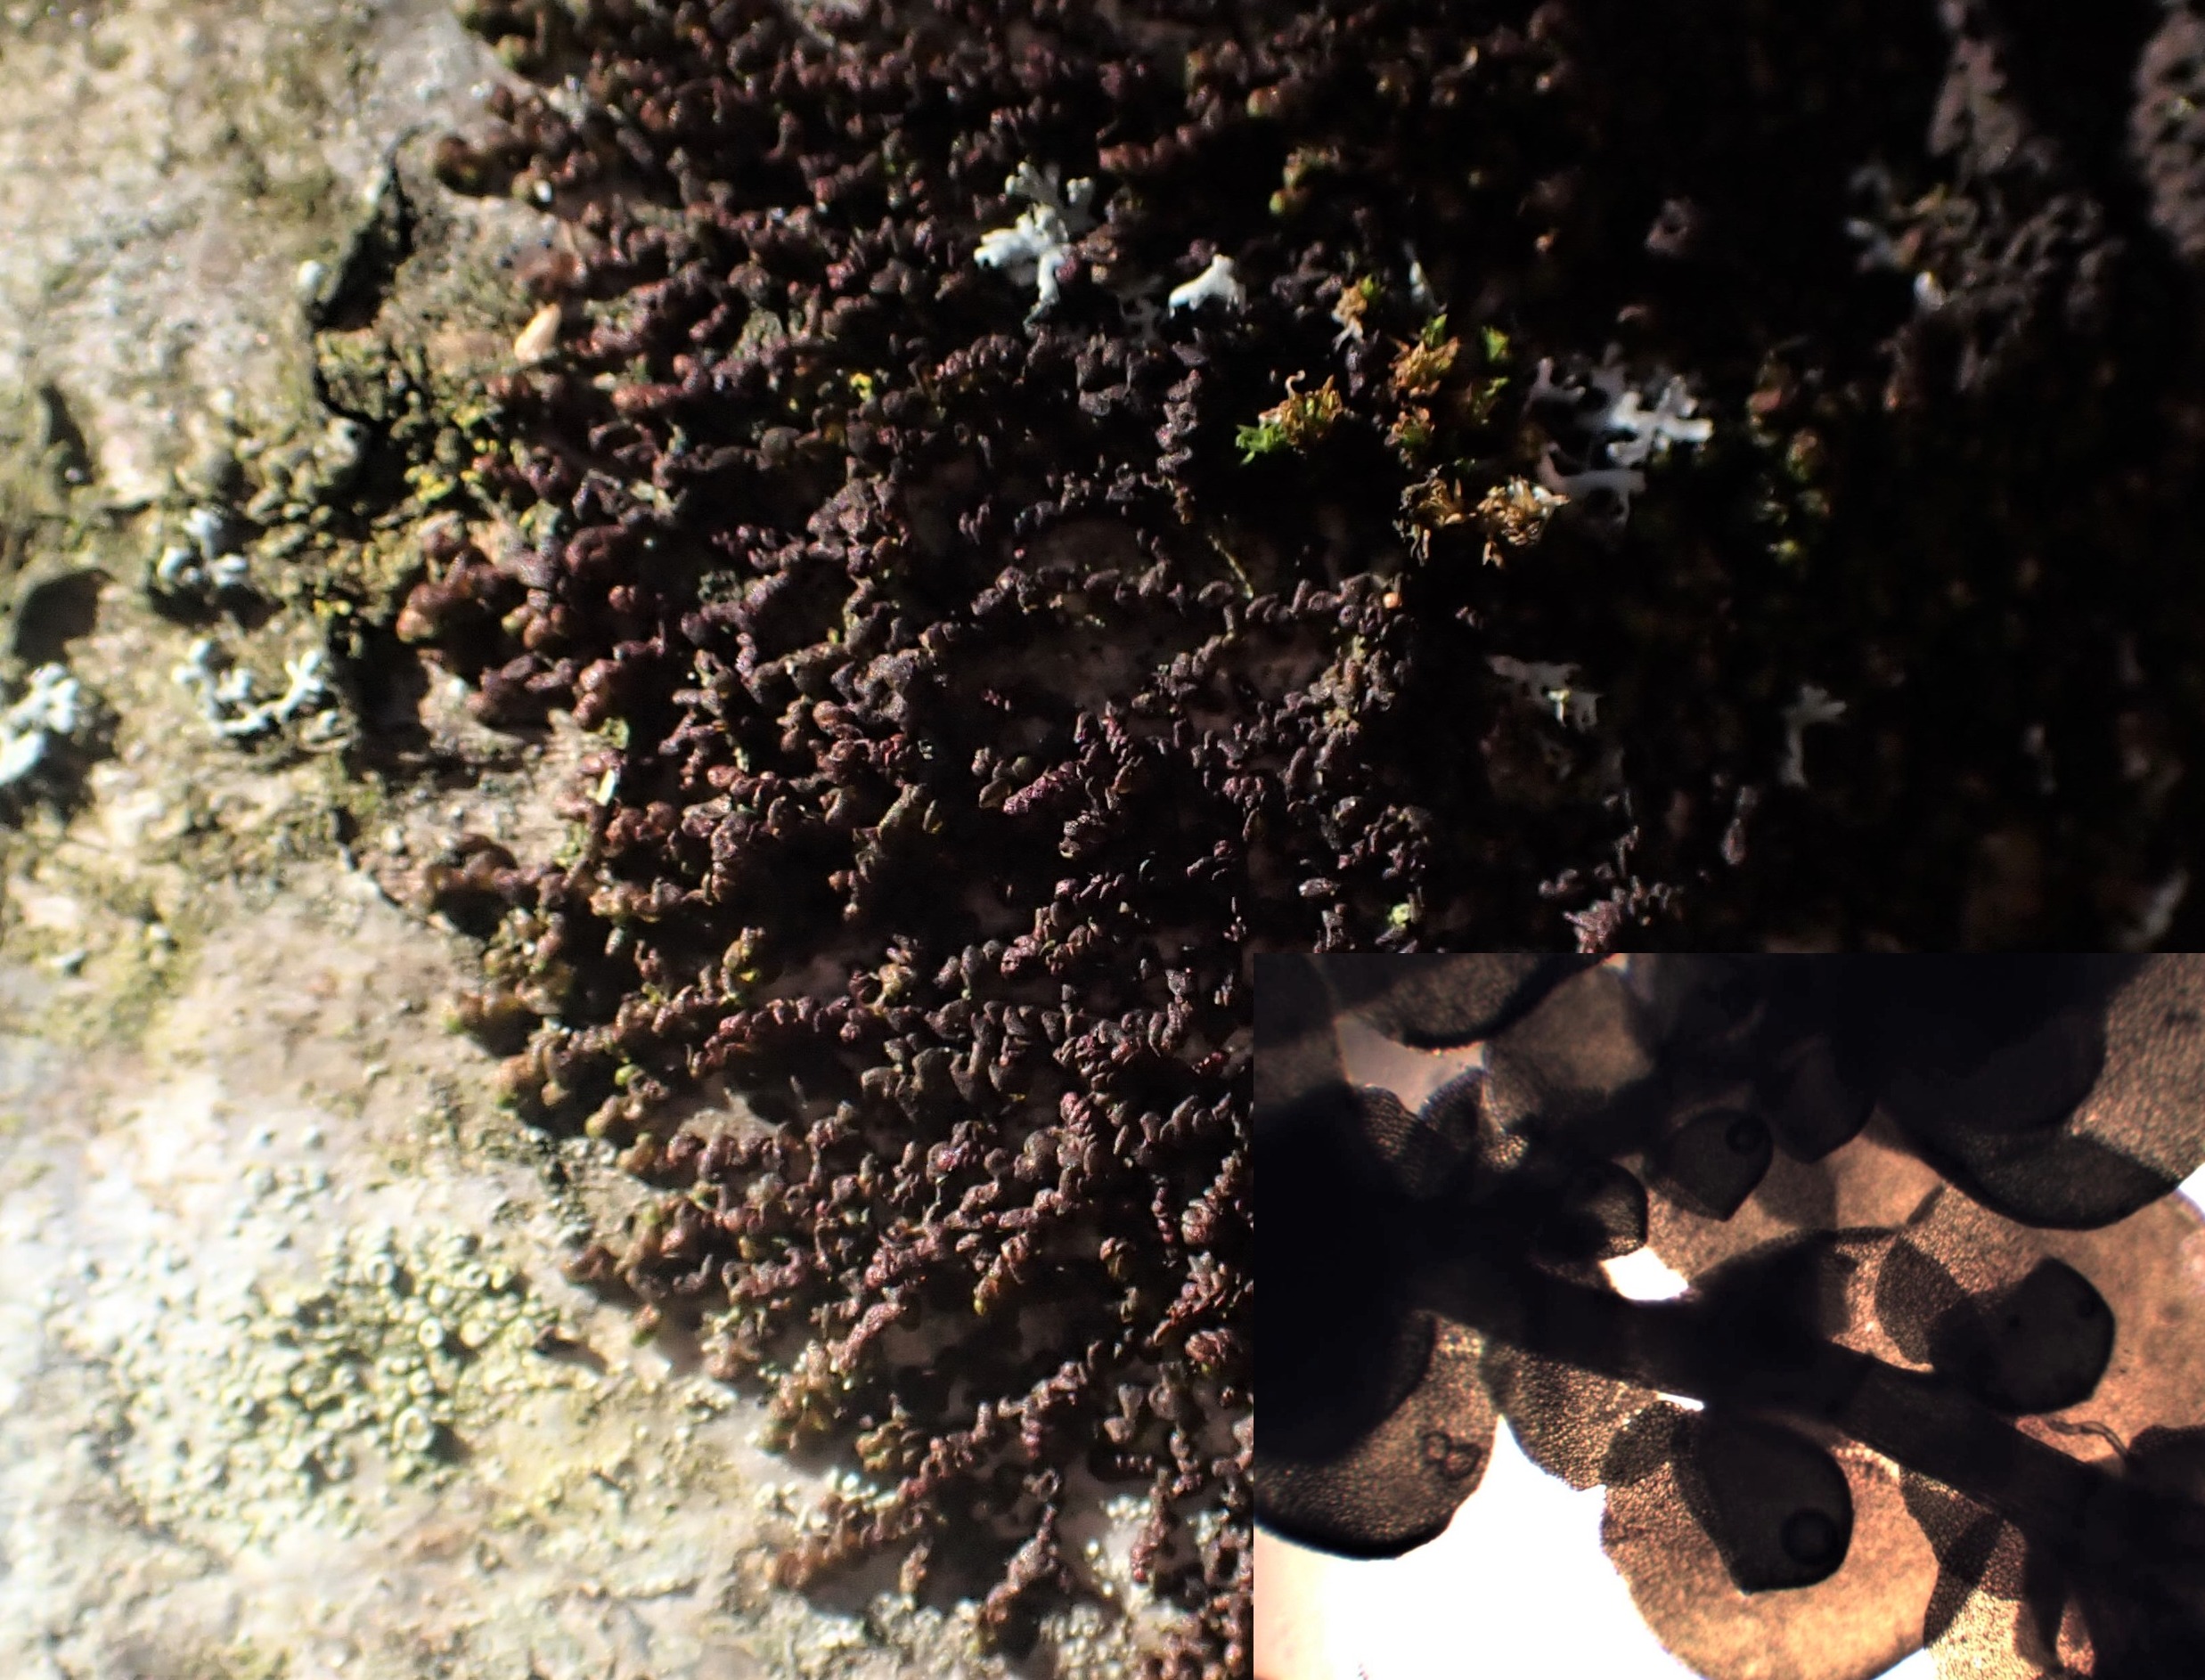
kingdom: Plantae
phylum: Marchantiophyta
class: Jungermanniopsida
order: Porellales
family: Frullaniaceae
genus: Frullania
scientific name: Frullania dilatata
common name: Mat bronzemos
